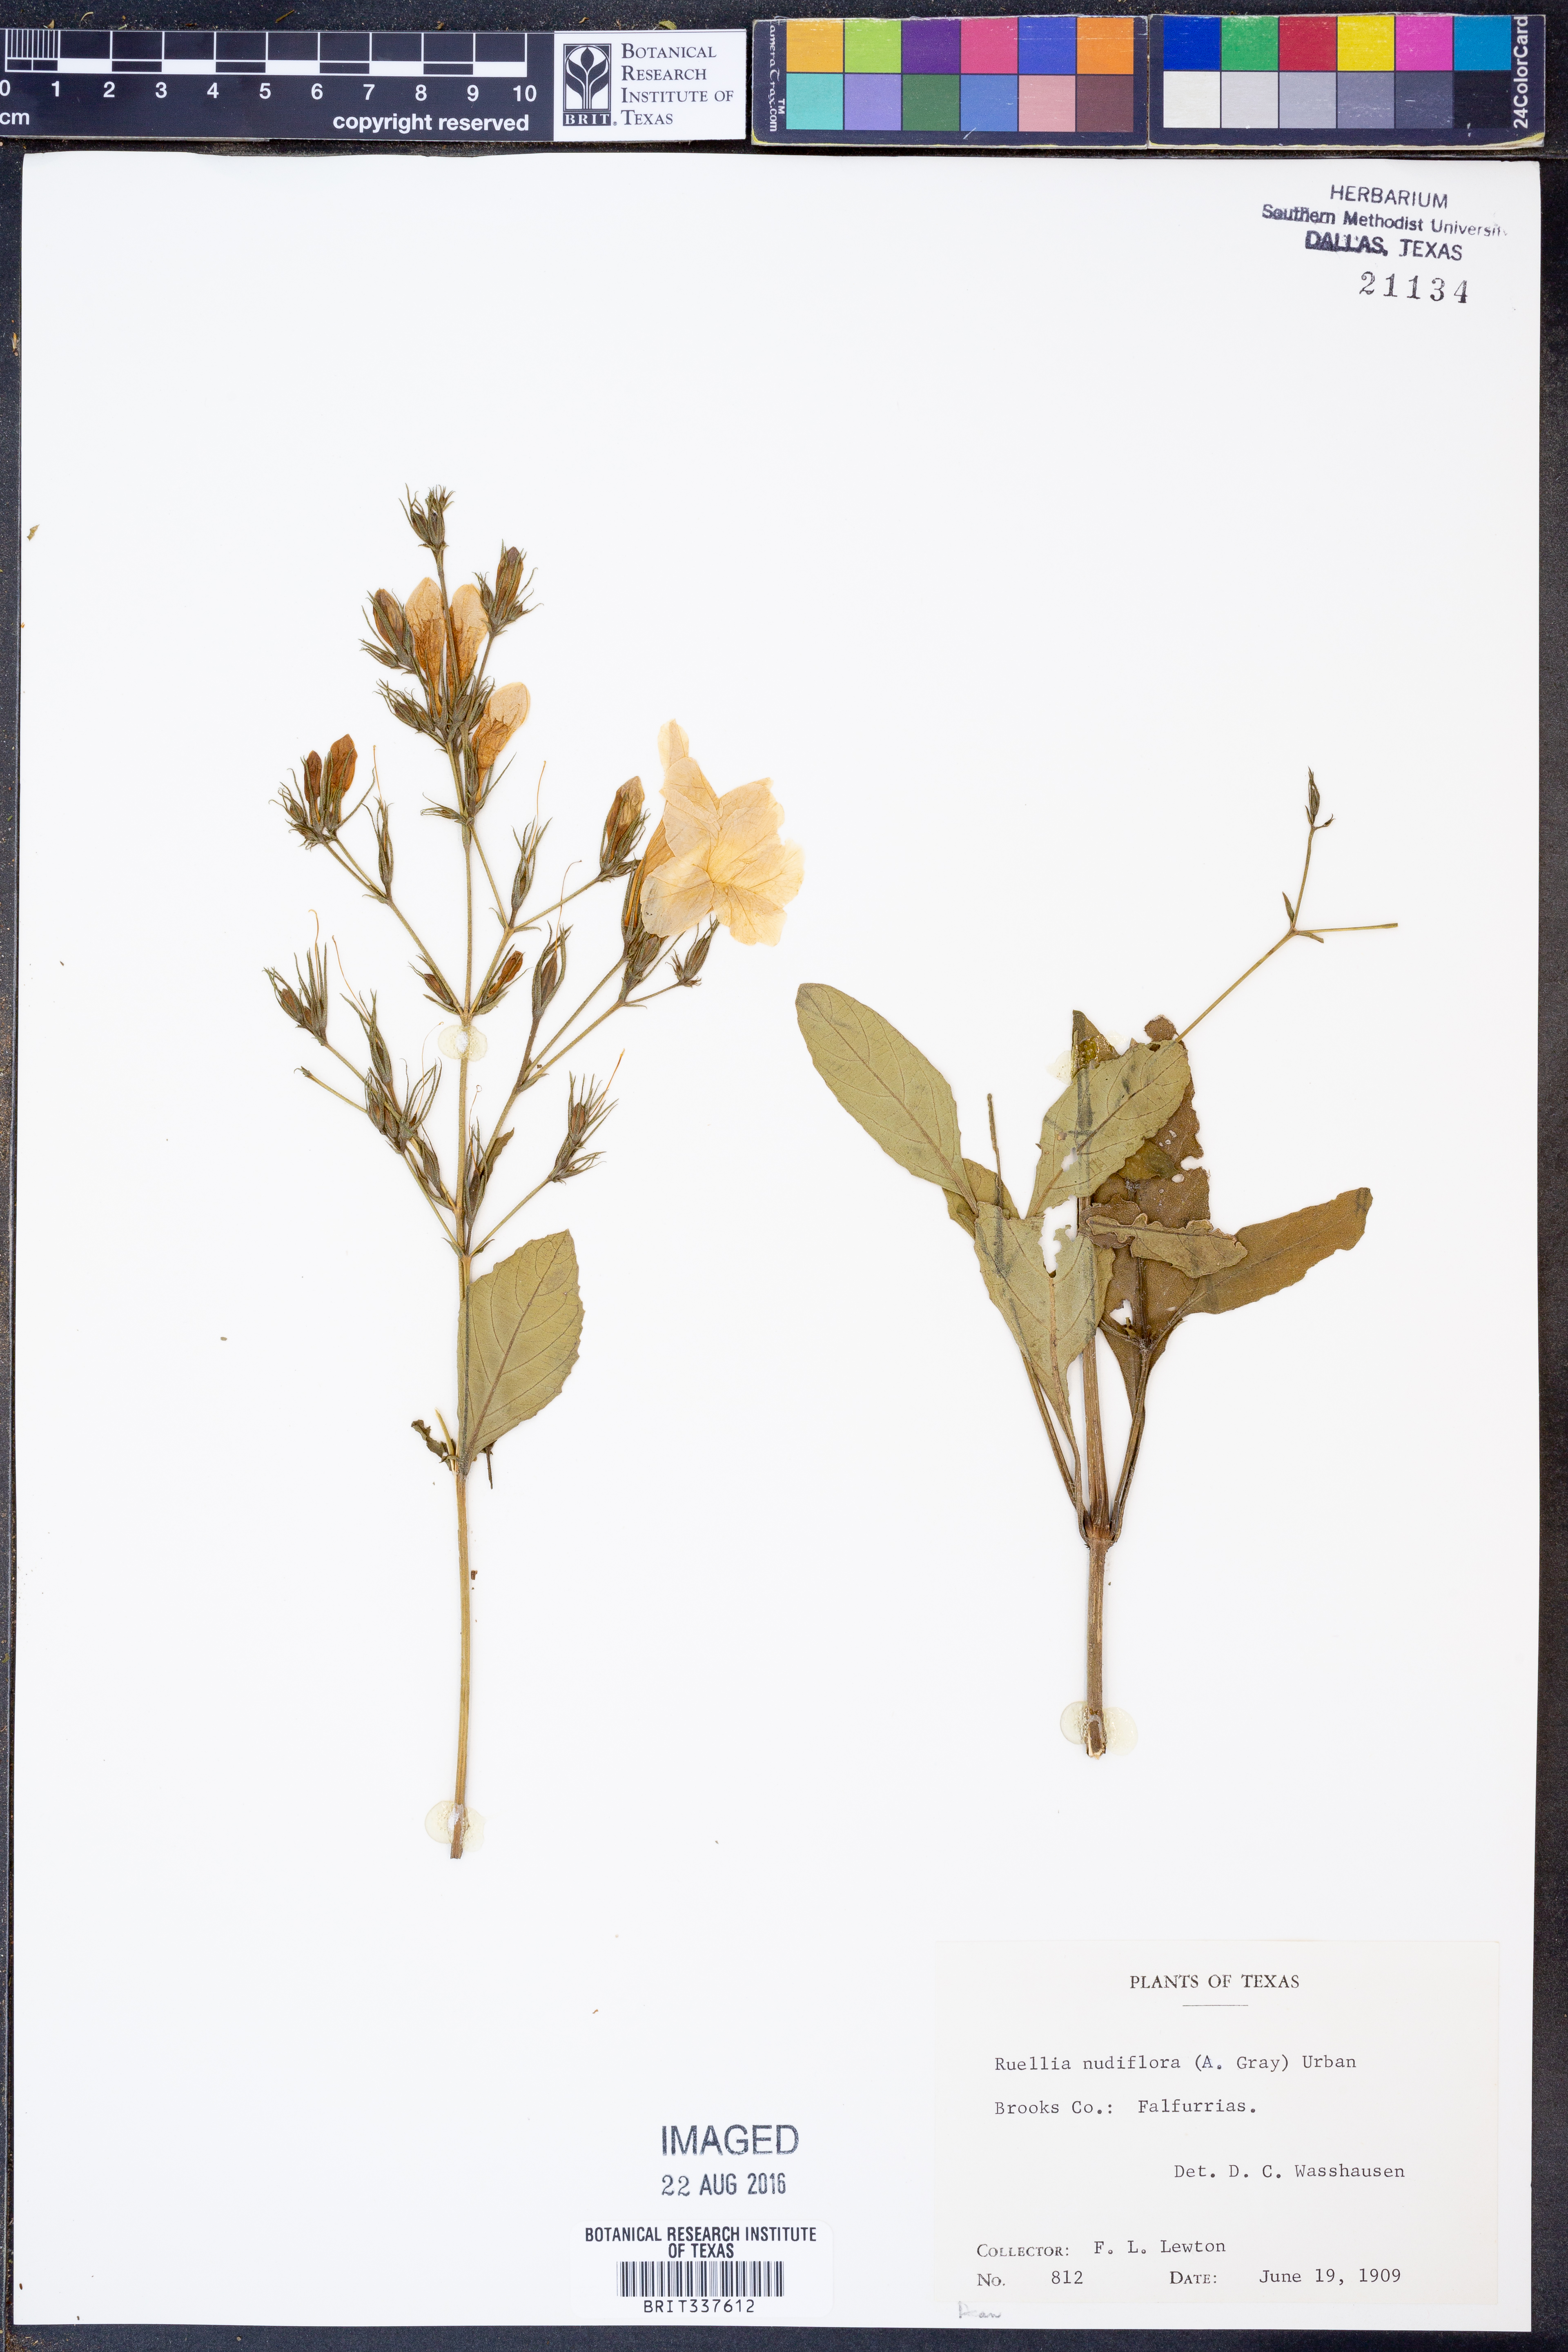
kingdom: Plantae
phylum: Tracheophyta
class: Magnoliopsida
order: Lamiales
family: Acanthaceae
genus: Ruellia
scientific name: Ruellia ciliatiflora
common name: Hairyflower wild petunia
